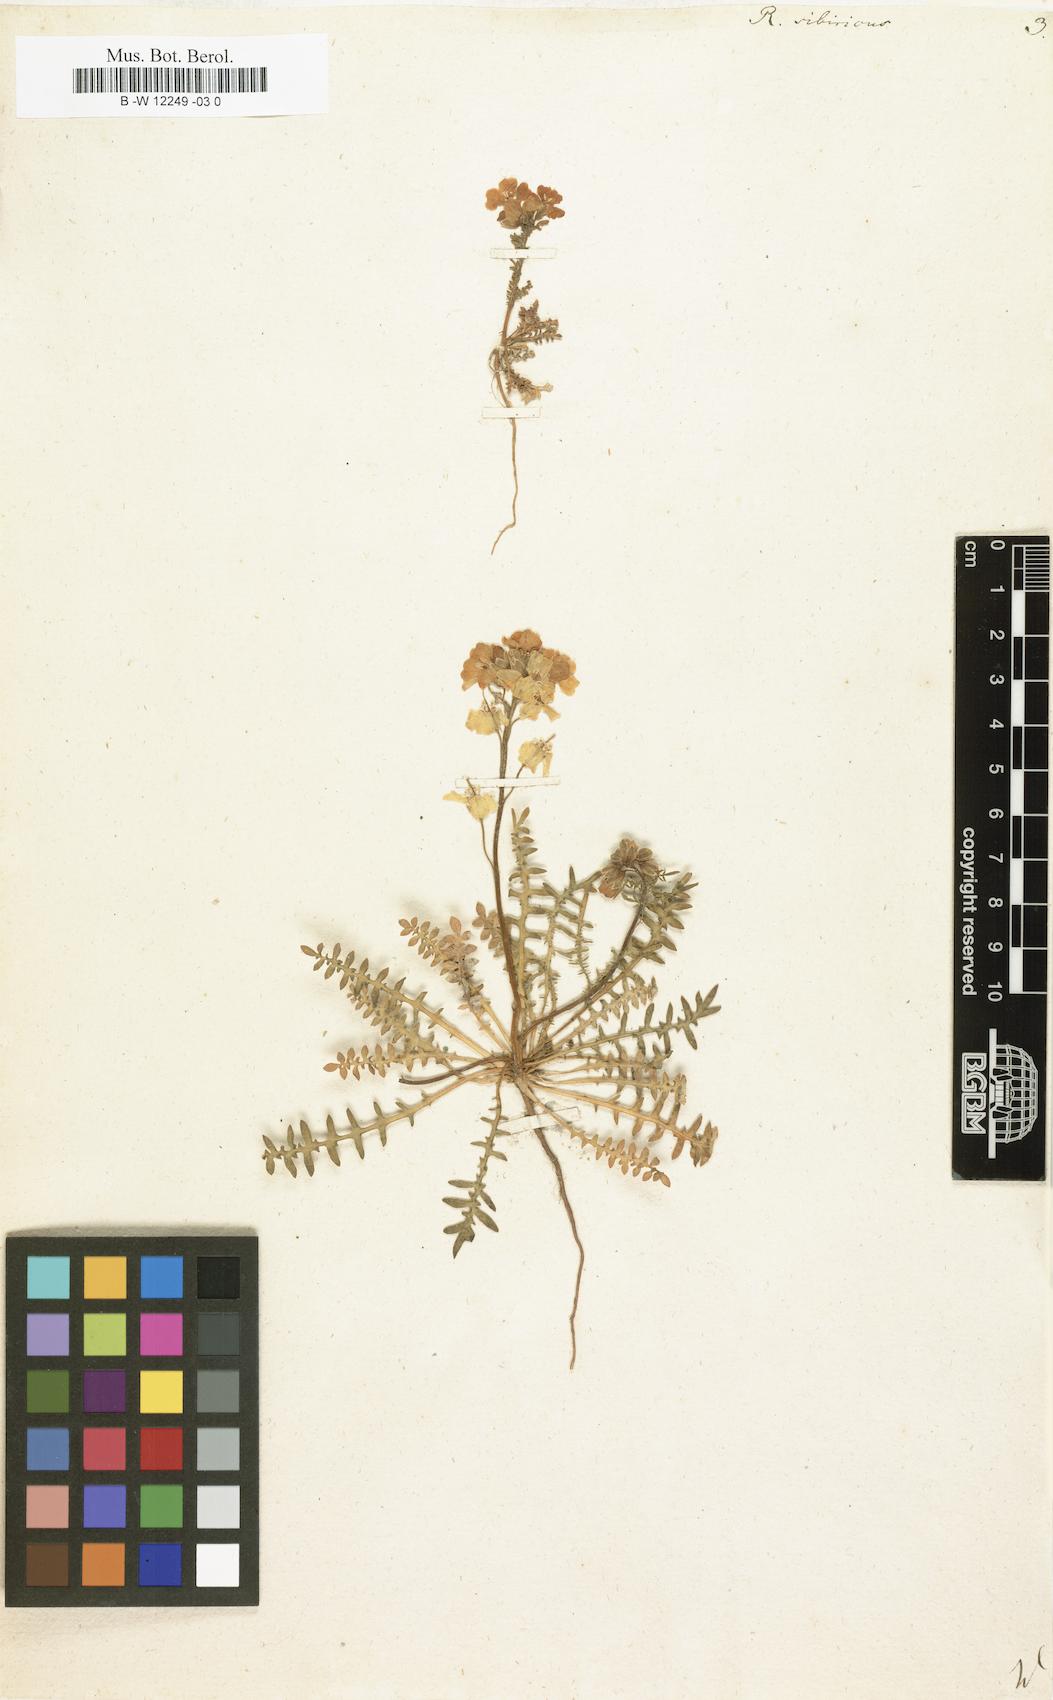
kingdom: Plantae
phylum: Tracheophyta
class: Magnoliopsida
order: Brassicales
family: Brassicaceae
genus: Chorispora
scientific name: Chorispora sibirica
